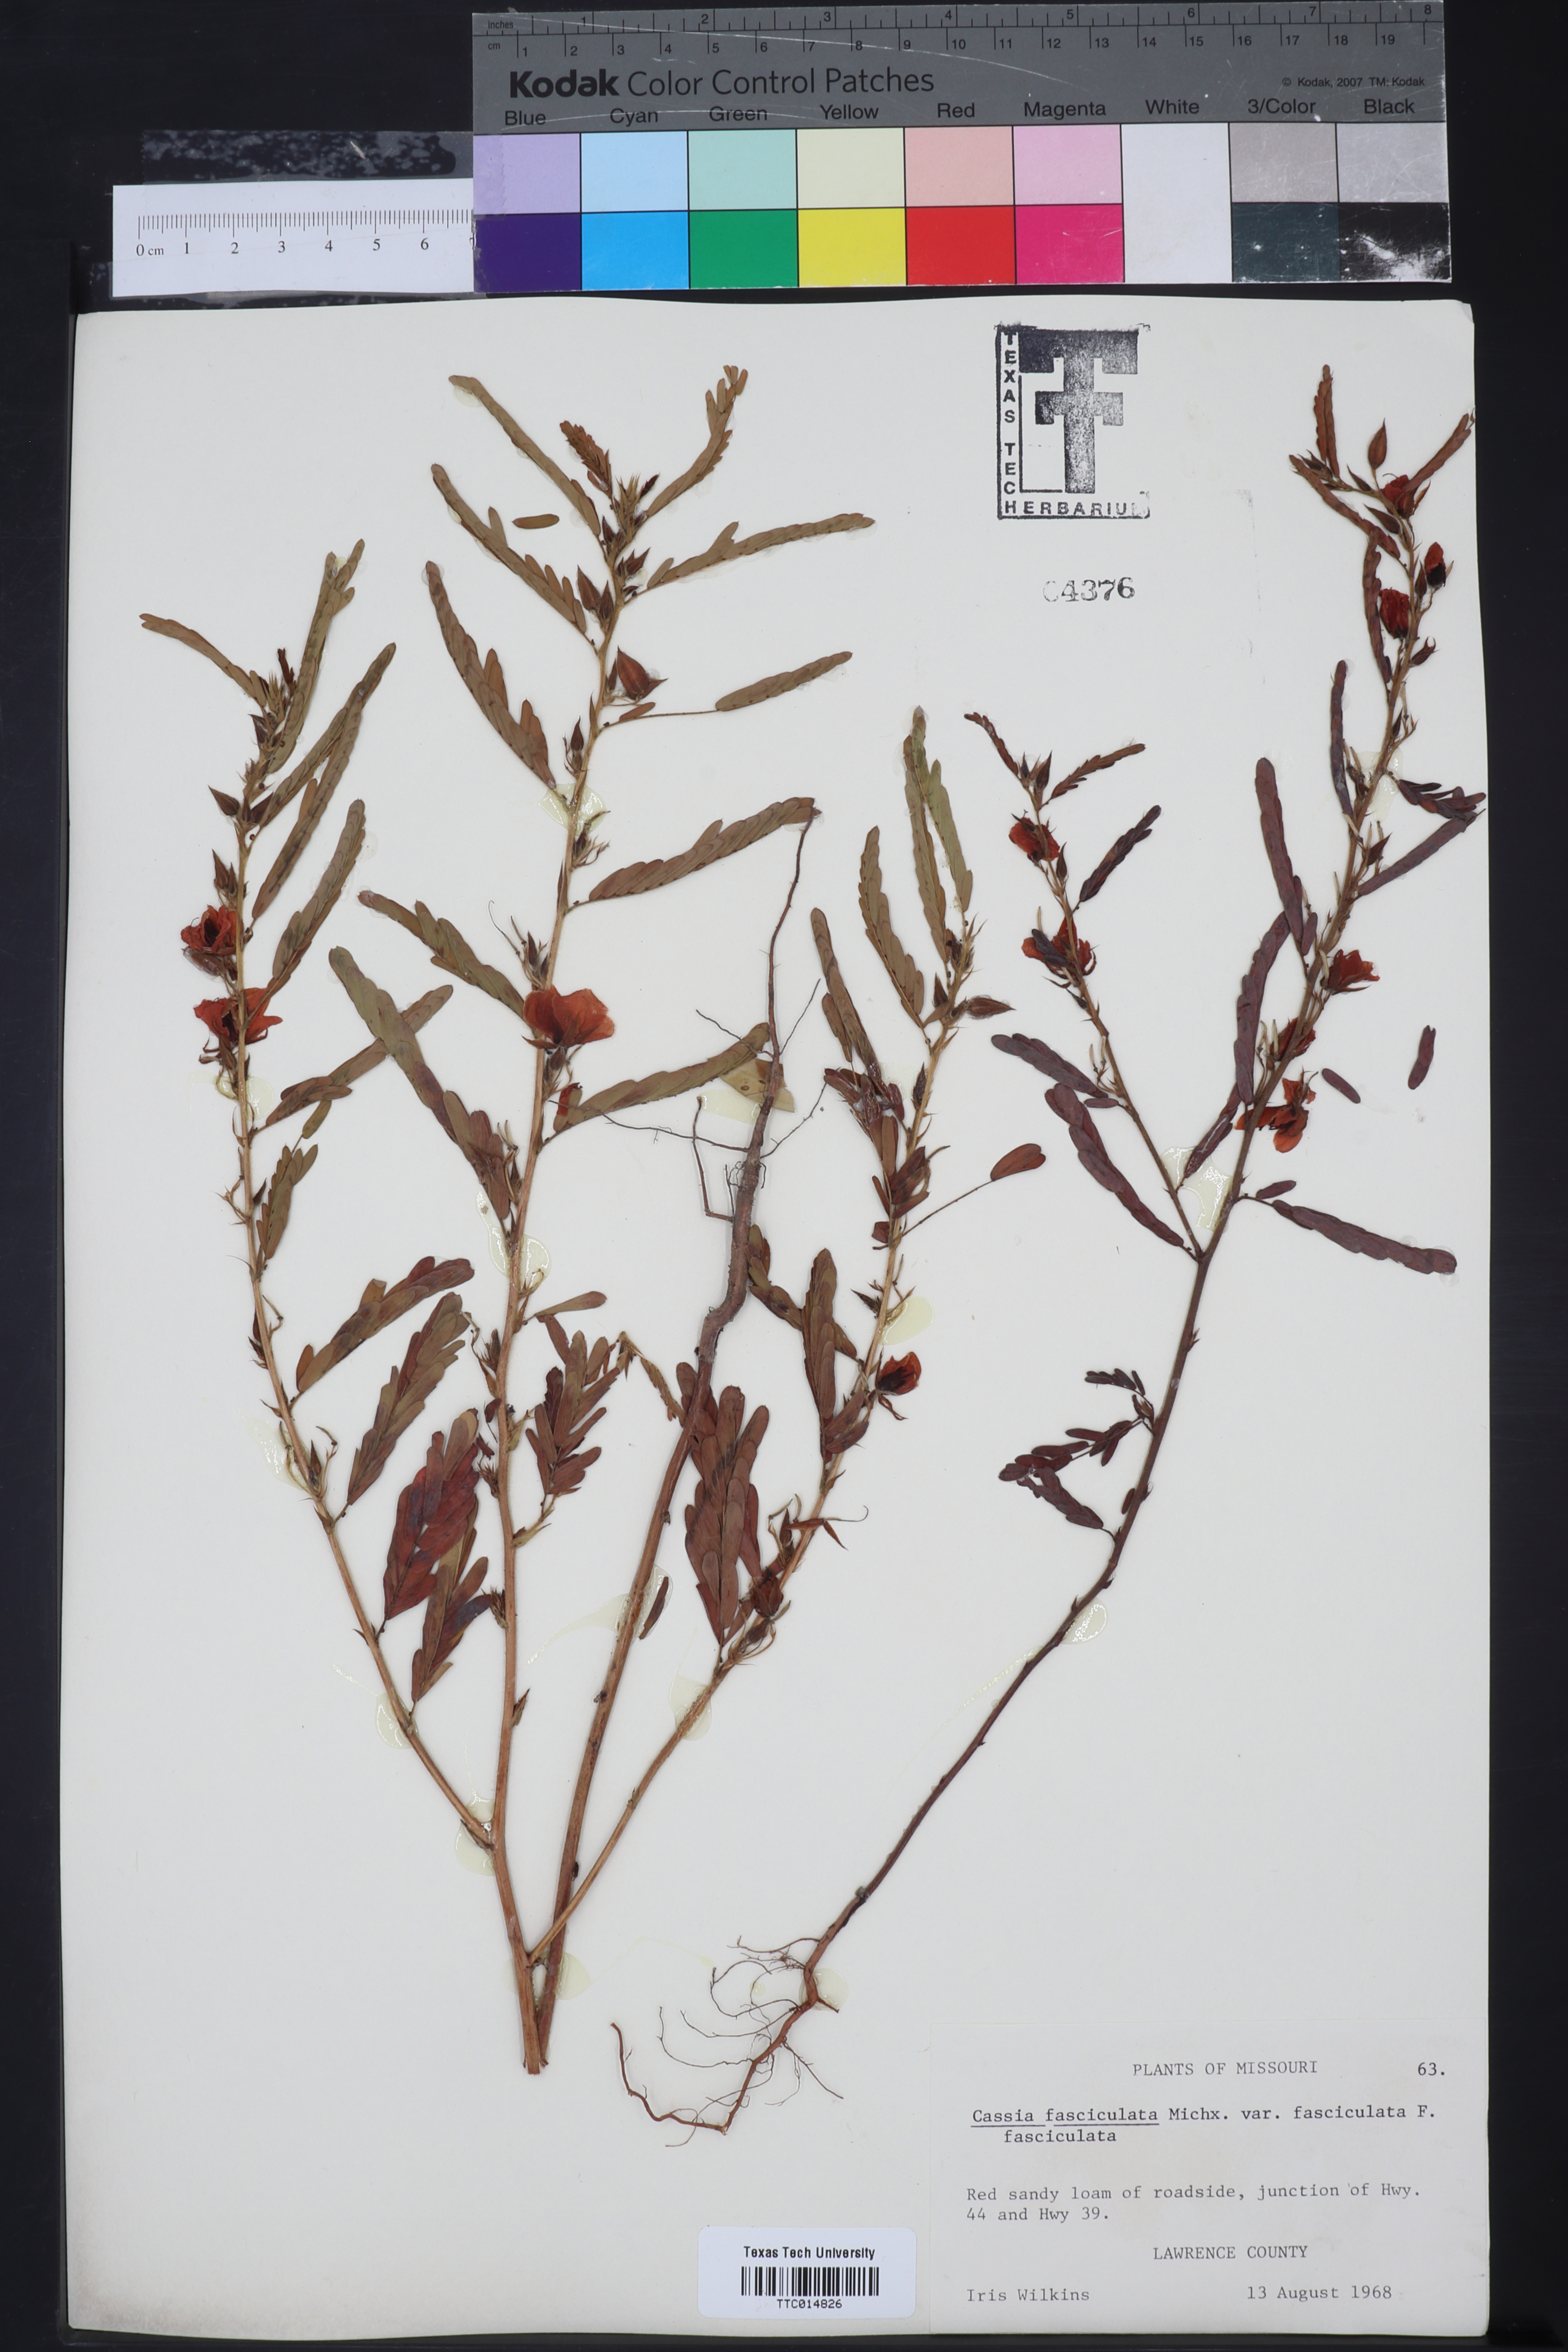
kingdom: Plantae
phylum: Tracheophyta
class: Magnoliopsida
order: Fabales
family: Fabaceae
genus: Chamaecrista
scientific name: Chamaecrista fasciculata
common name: Golden cassia
